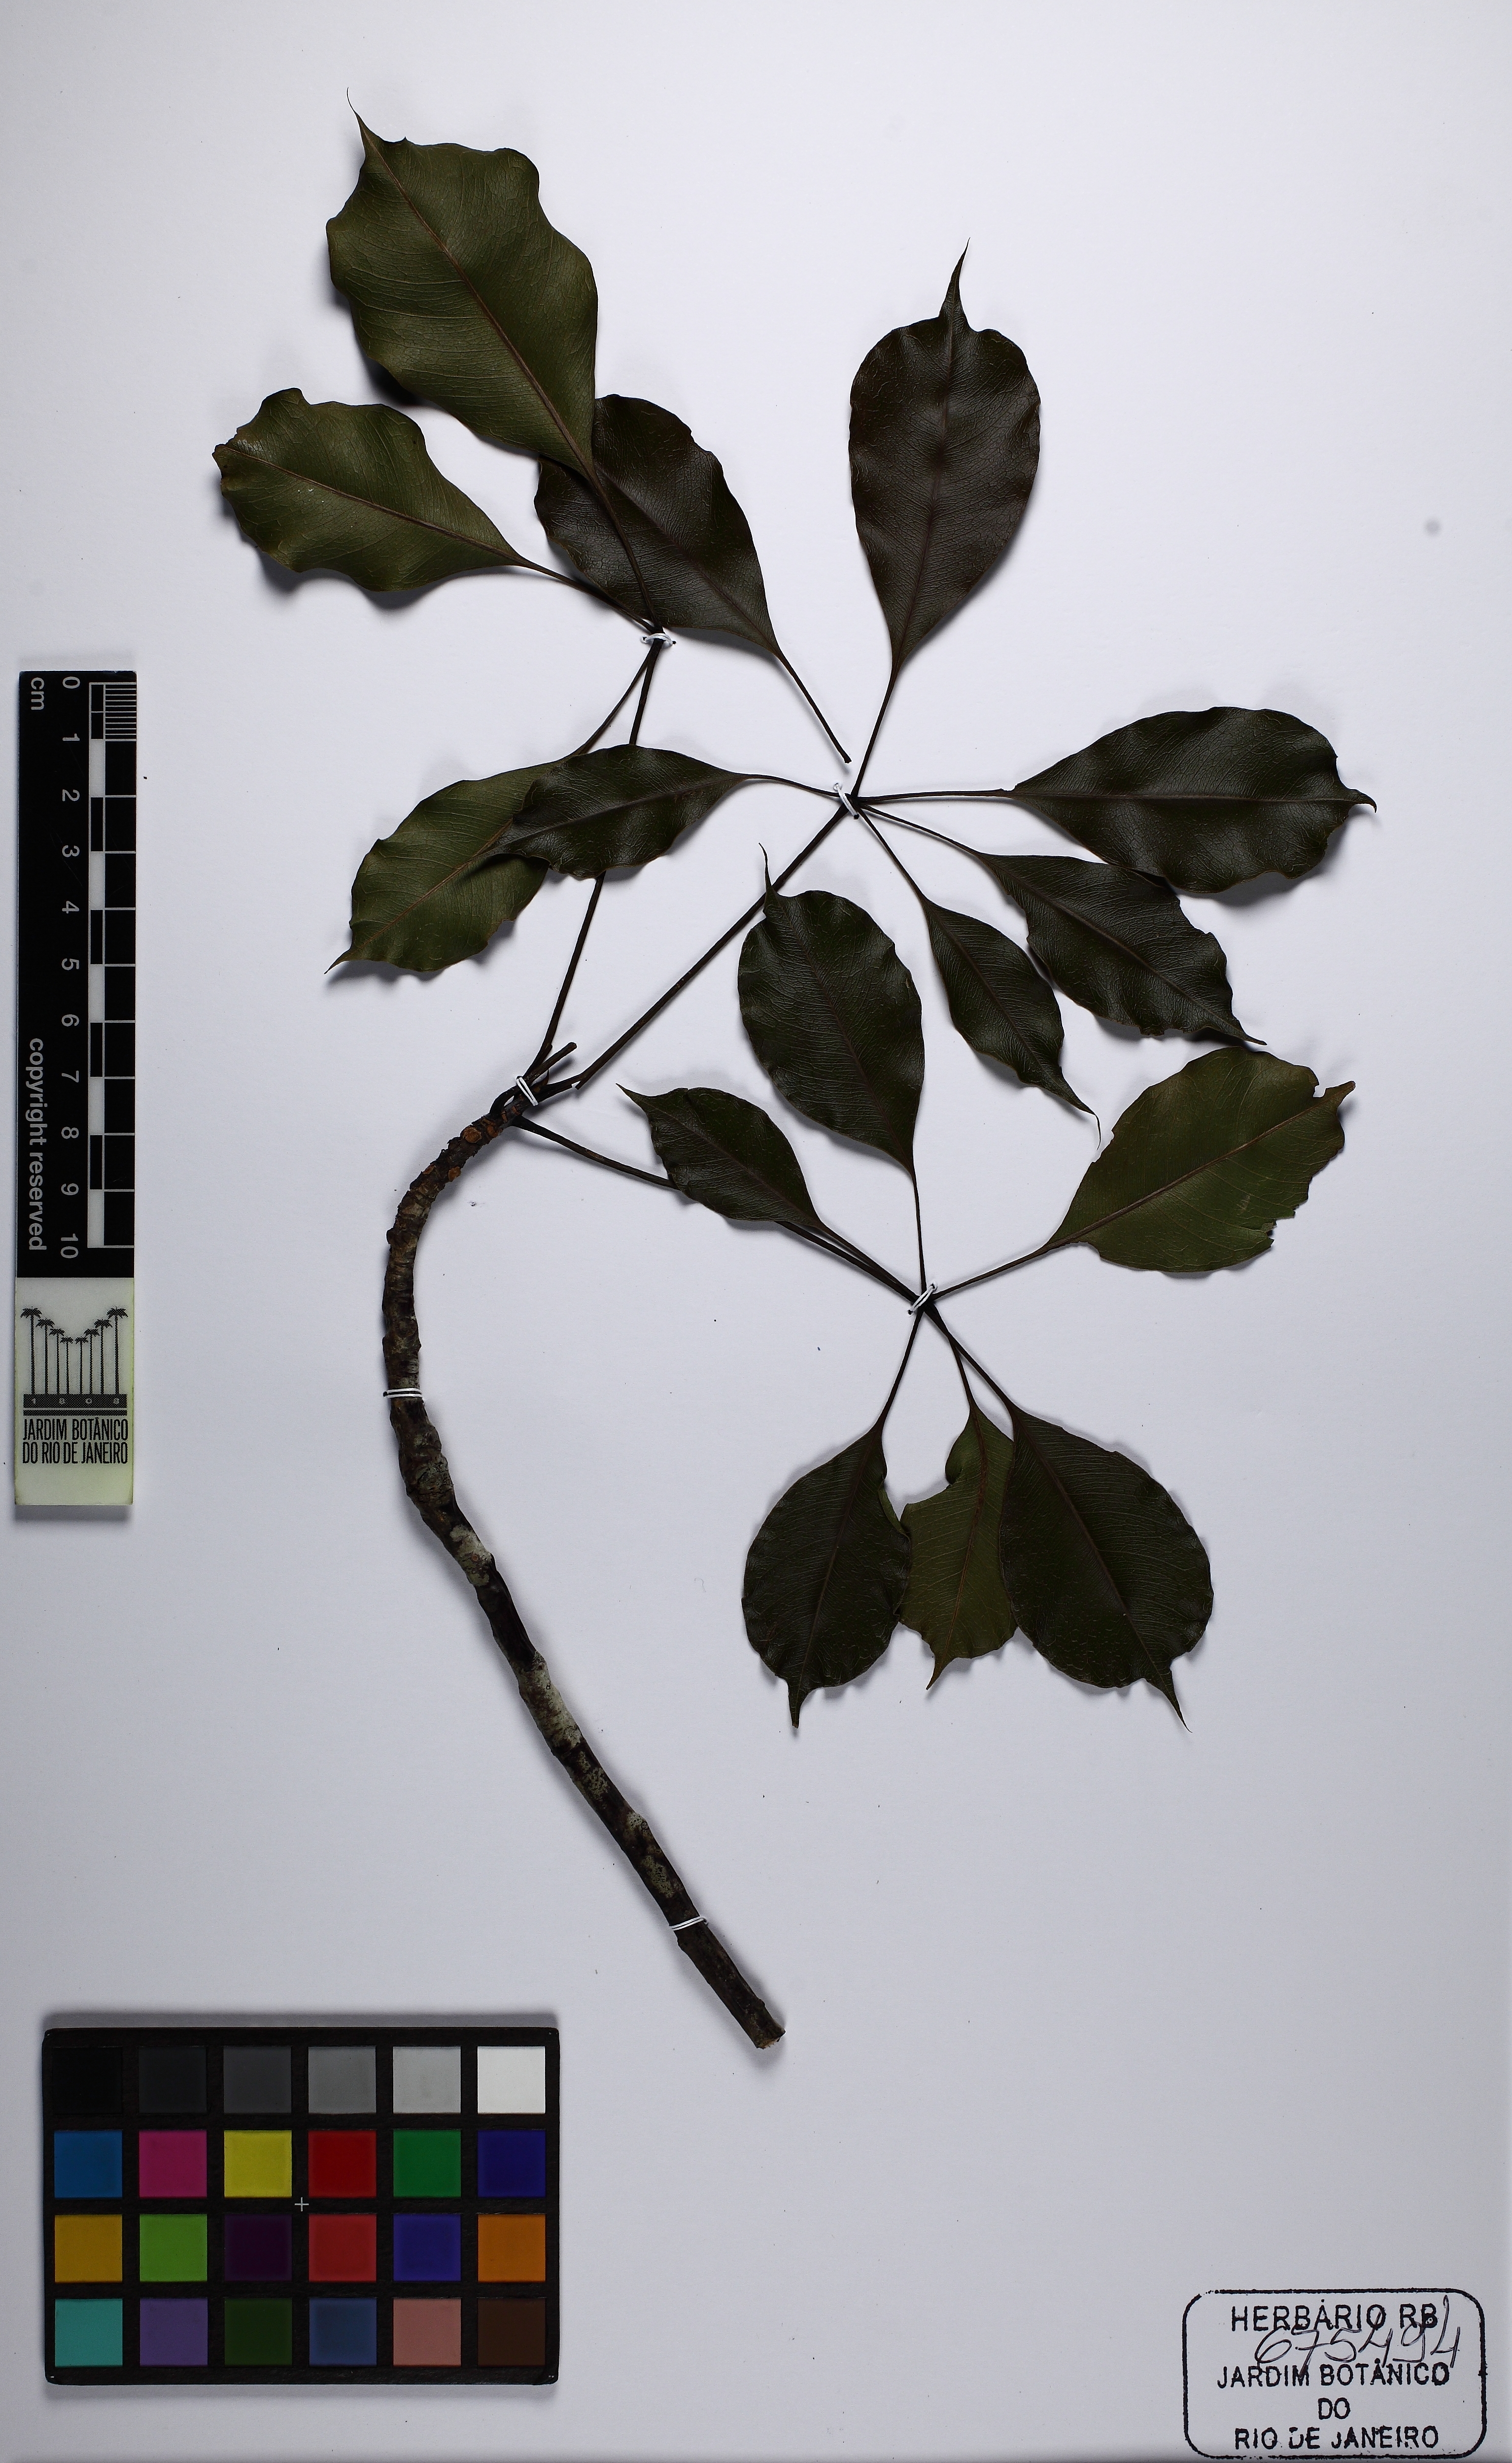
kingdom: Plantae
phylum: Tracheophyta
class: Magnoliopsida
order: Malvales
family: Malvaceae
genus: Pachira
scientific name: Pachira calophylla
